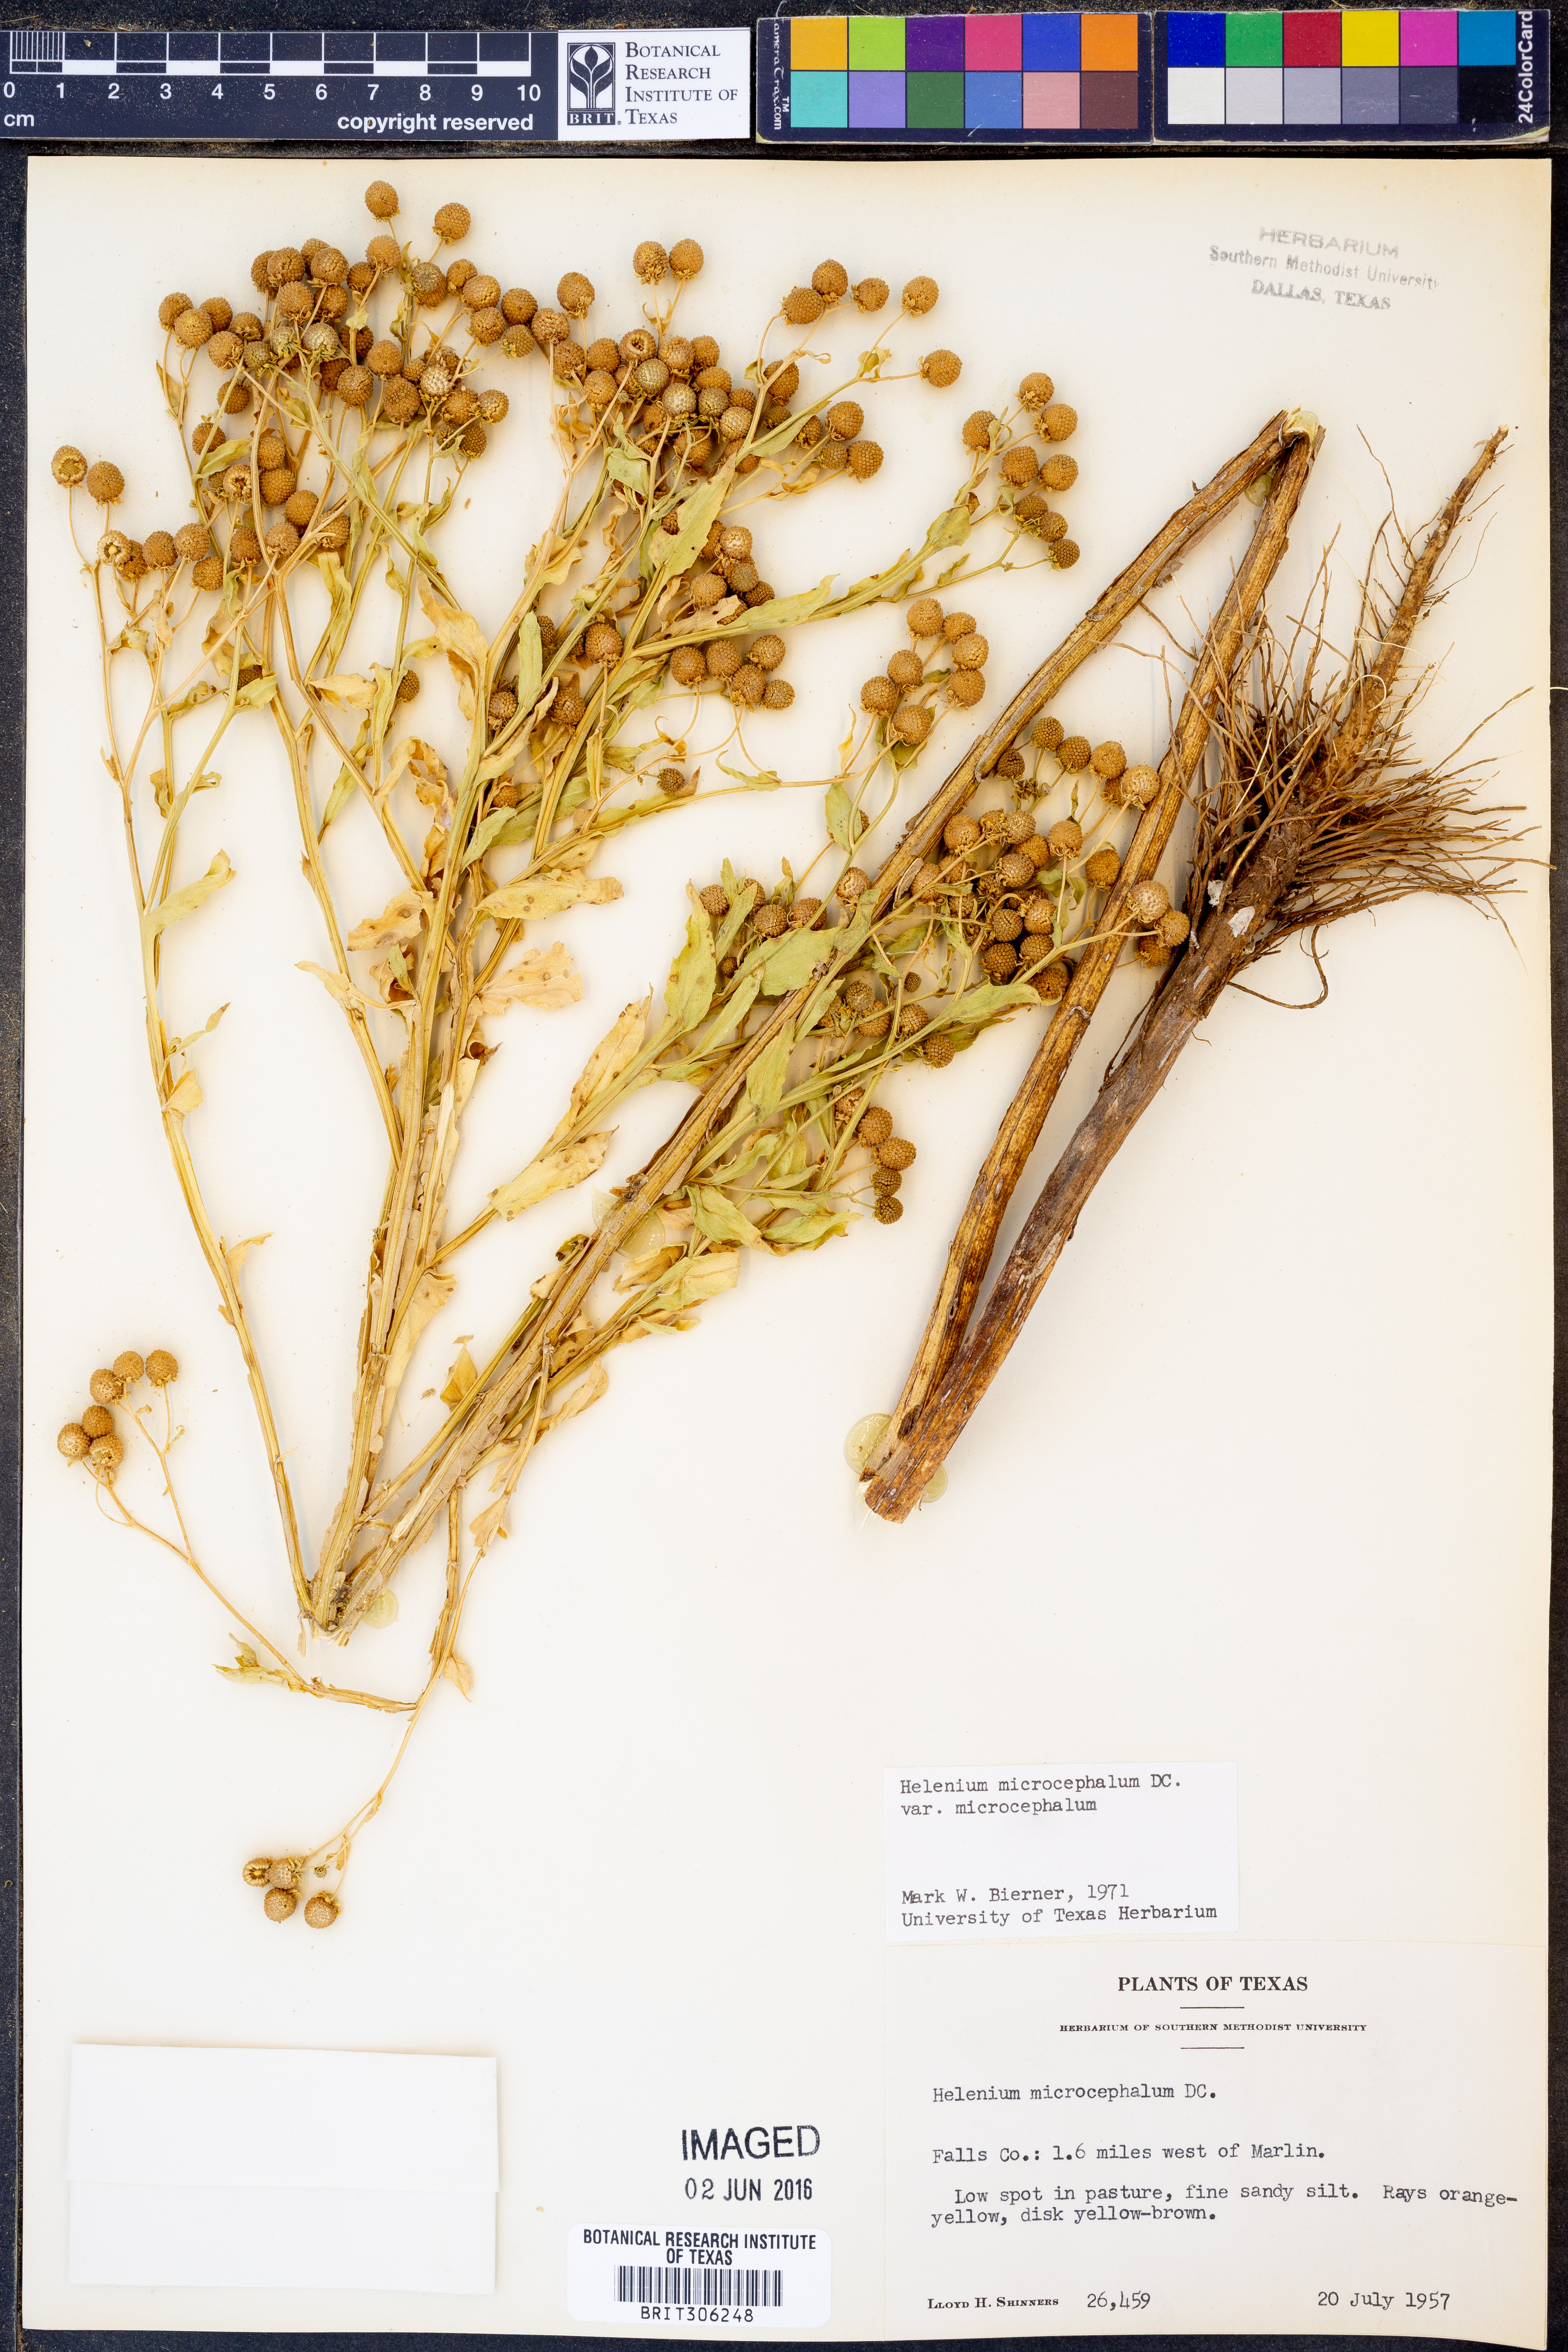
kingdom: Plantae
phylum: Tracheophyta
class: Magnoliopsida
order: Asterales
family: Asteraceae
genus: Helenium
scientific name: Helenium microcephalum
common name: Smallhead sneezeweed
